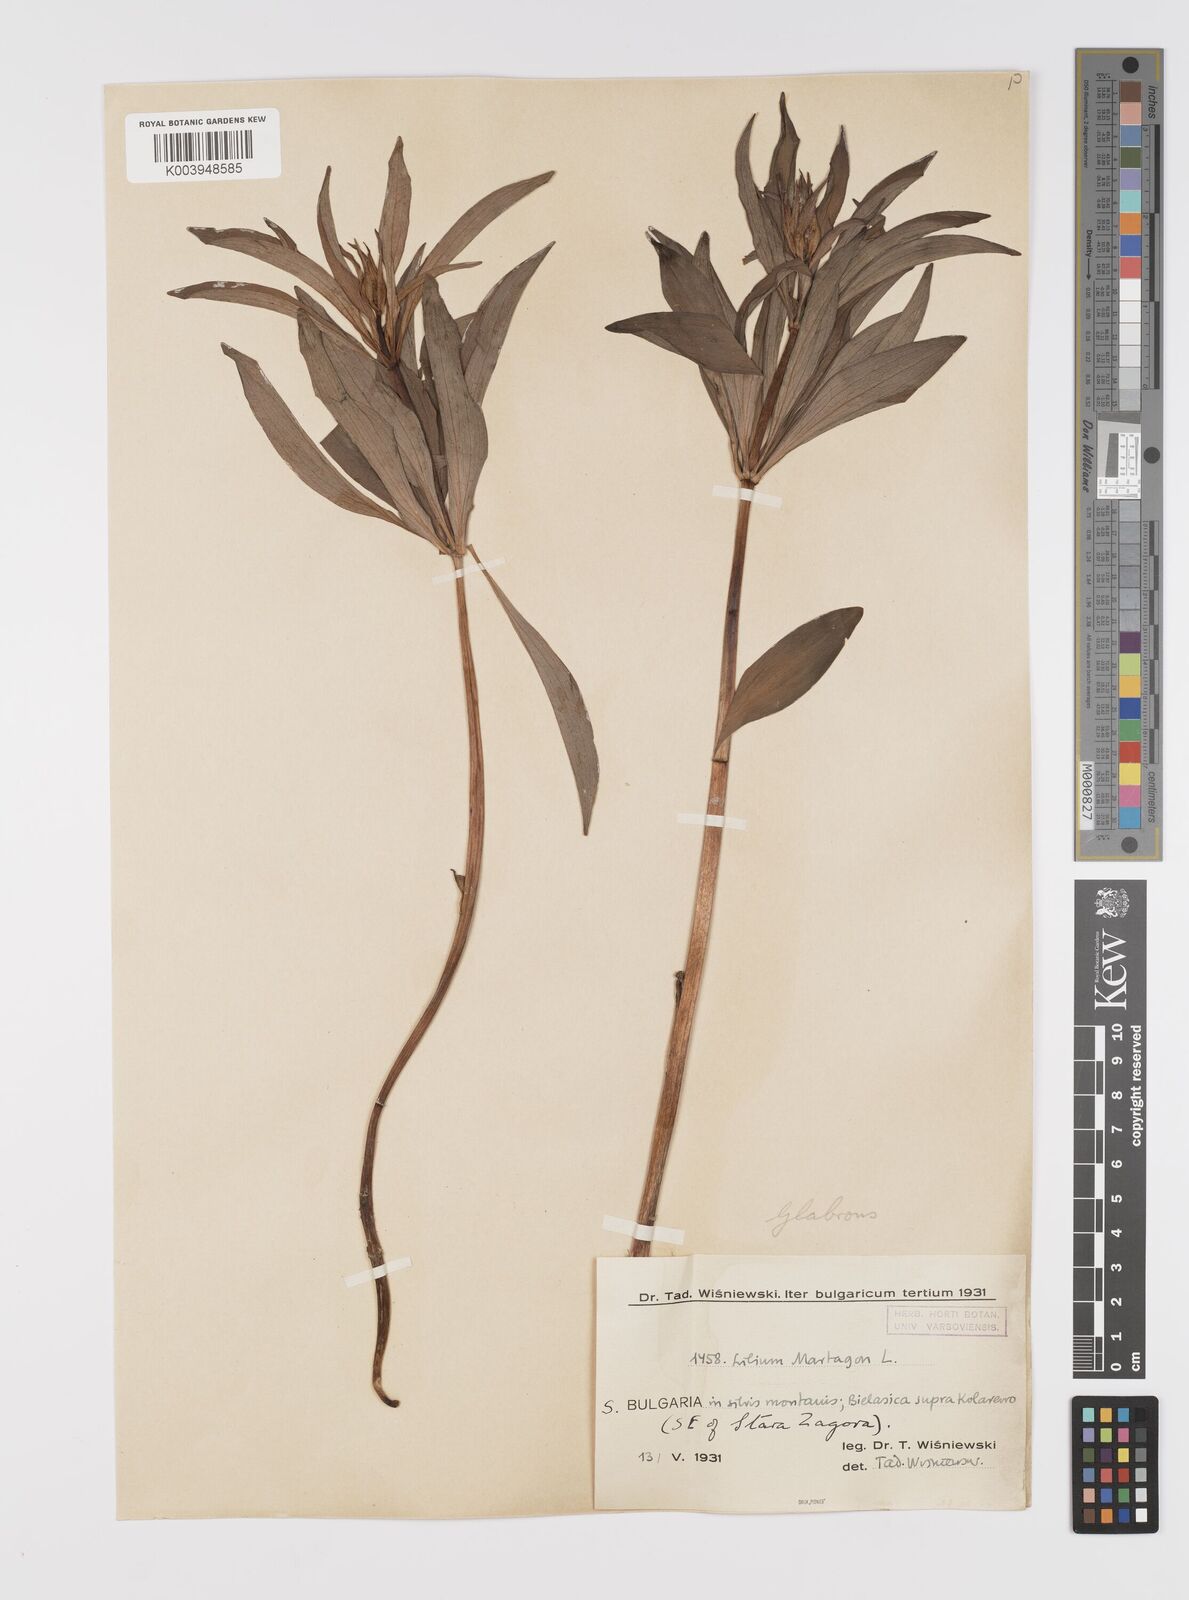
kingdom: Plantae
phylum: Tracheophyta
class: Liliopsida
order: Liliales
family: Liliaceae
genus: Lilium
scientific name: Lilium martagon
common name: Martagon lily
